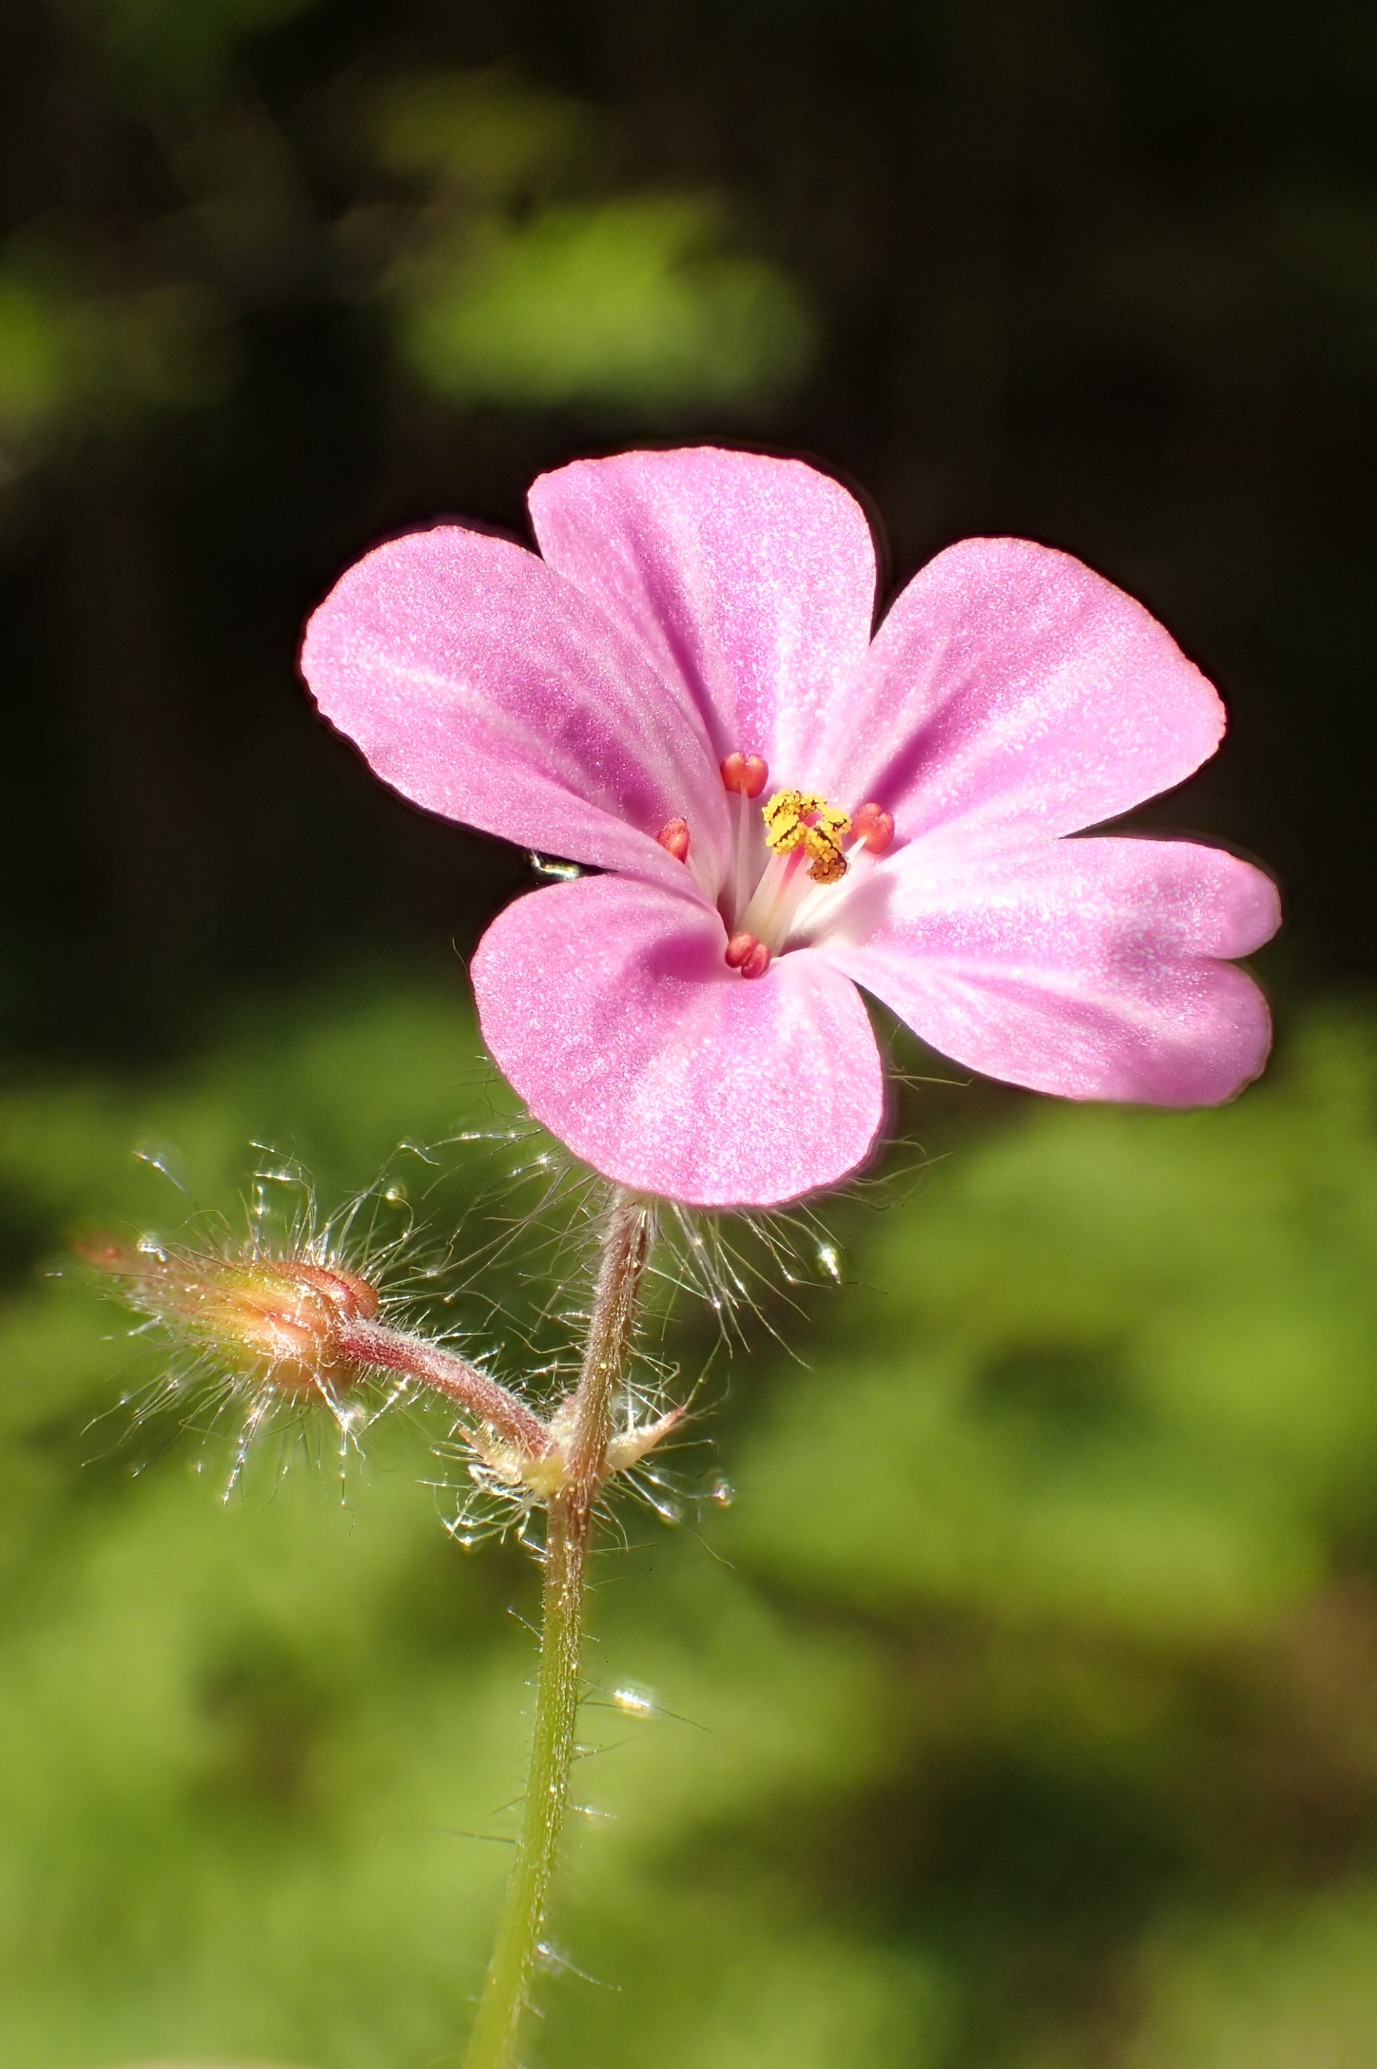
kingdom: Plantae
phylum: Tracheophyta
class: Magnoliopsida
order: Geraniales
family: Geraniaceae
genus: Geranium
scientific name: Geranium robertianum
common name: Stinkende storkenæb
